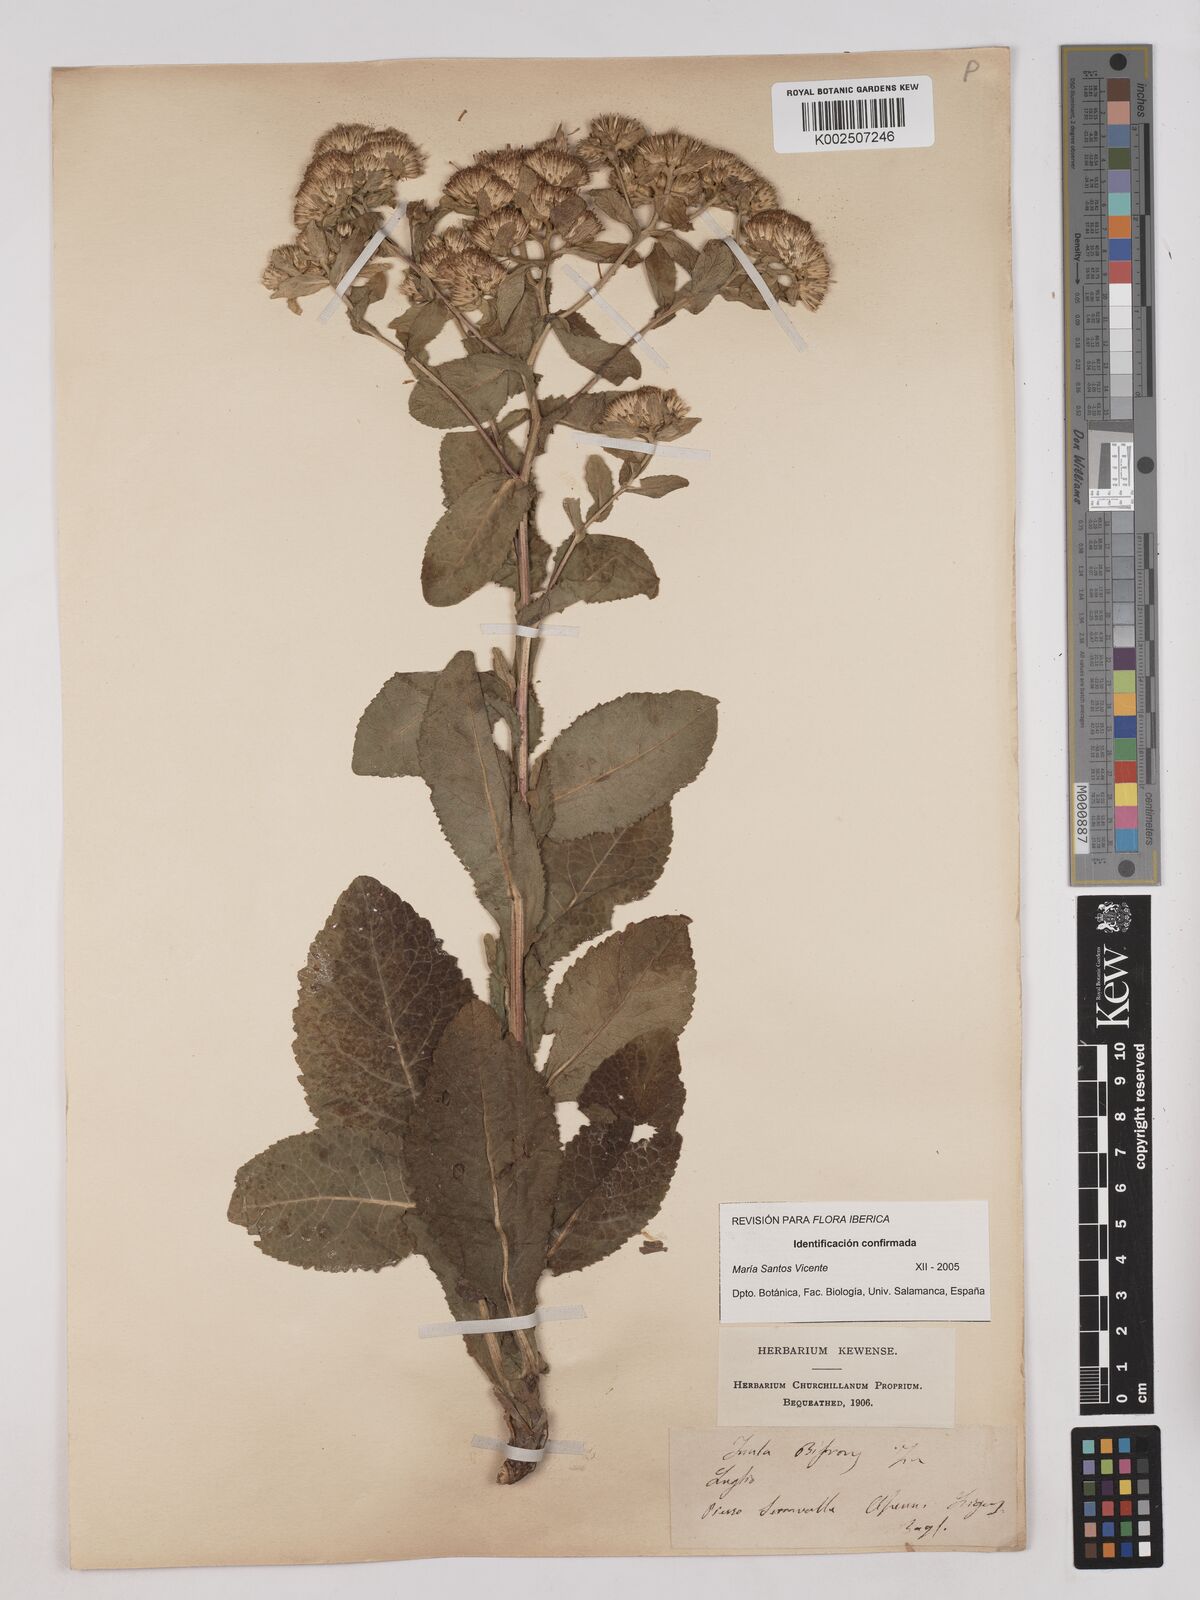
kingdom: Plantae
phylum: Tracheophyta
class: Magnoliopsida
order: Asterales
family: Asteraceae
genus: Pentanema
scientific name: Pentanema bifrons
